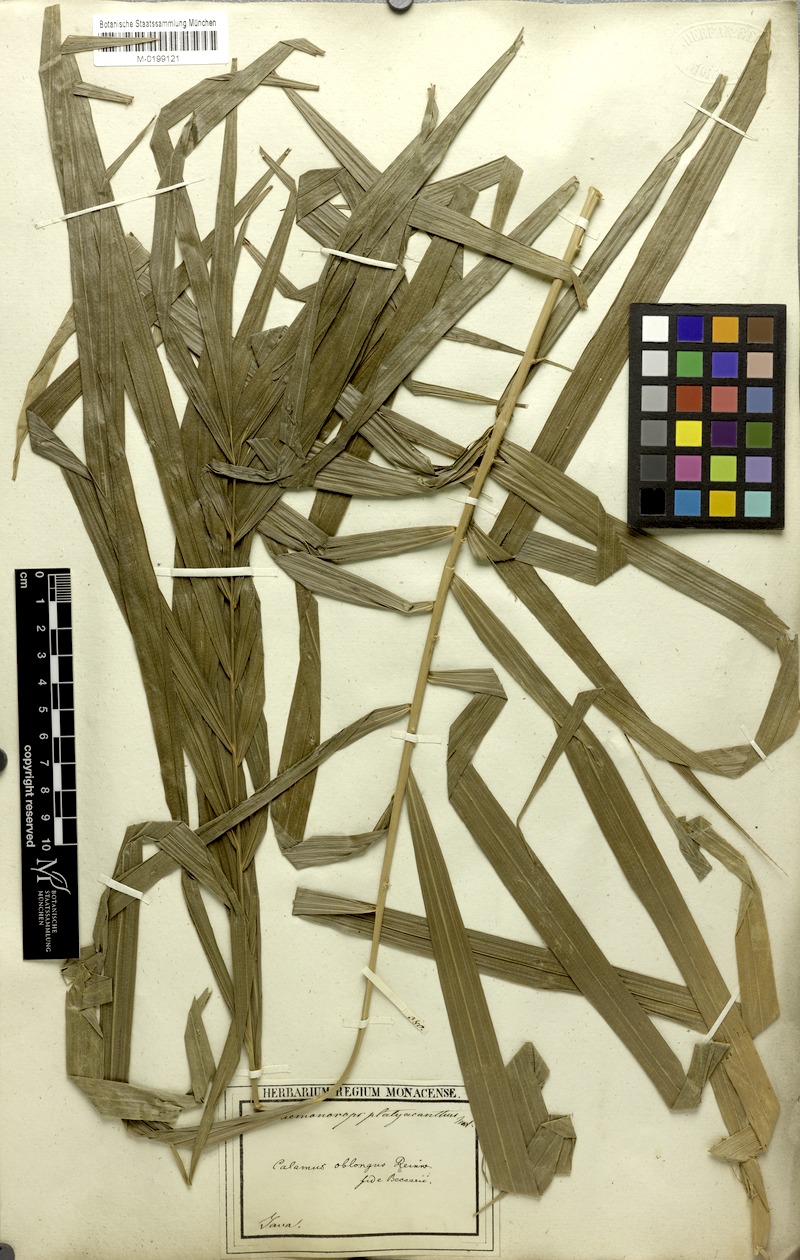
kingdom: Plantae
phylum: Tracheophyta
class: Liliopsida
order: Arecales
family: Arecaceae
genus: Calamus
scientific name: Calamus oblongus
